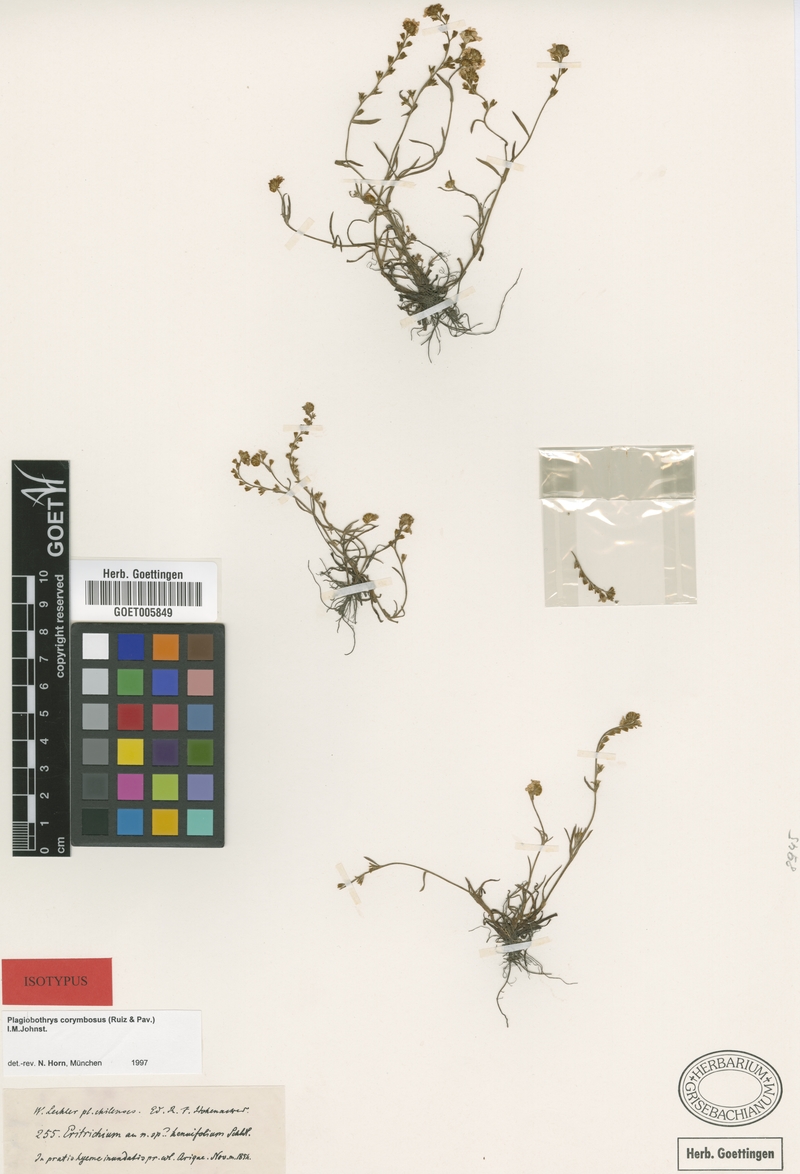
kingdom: Plantae
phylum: Tracheophyta
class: Magnoliopsida
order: Boraginales
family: Boraginaceae
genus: Plagiobothrys
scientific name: Plagiobothrys corymbosus
